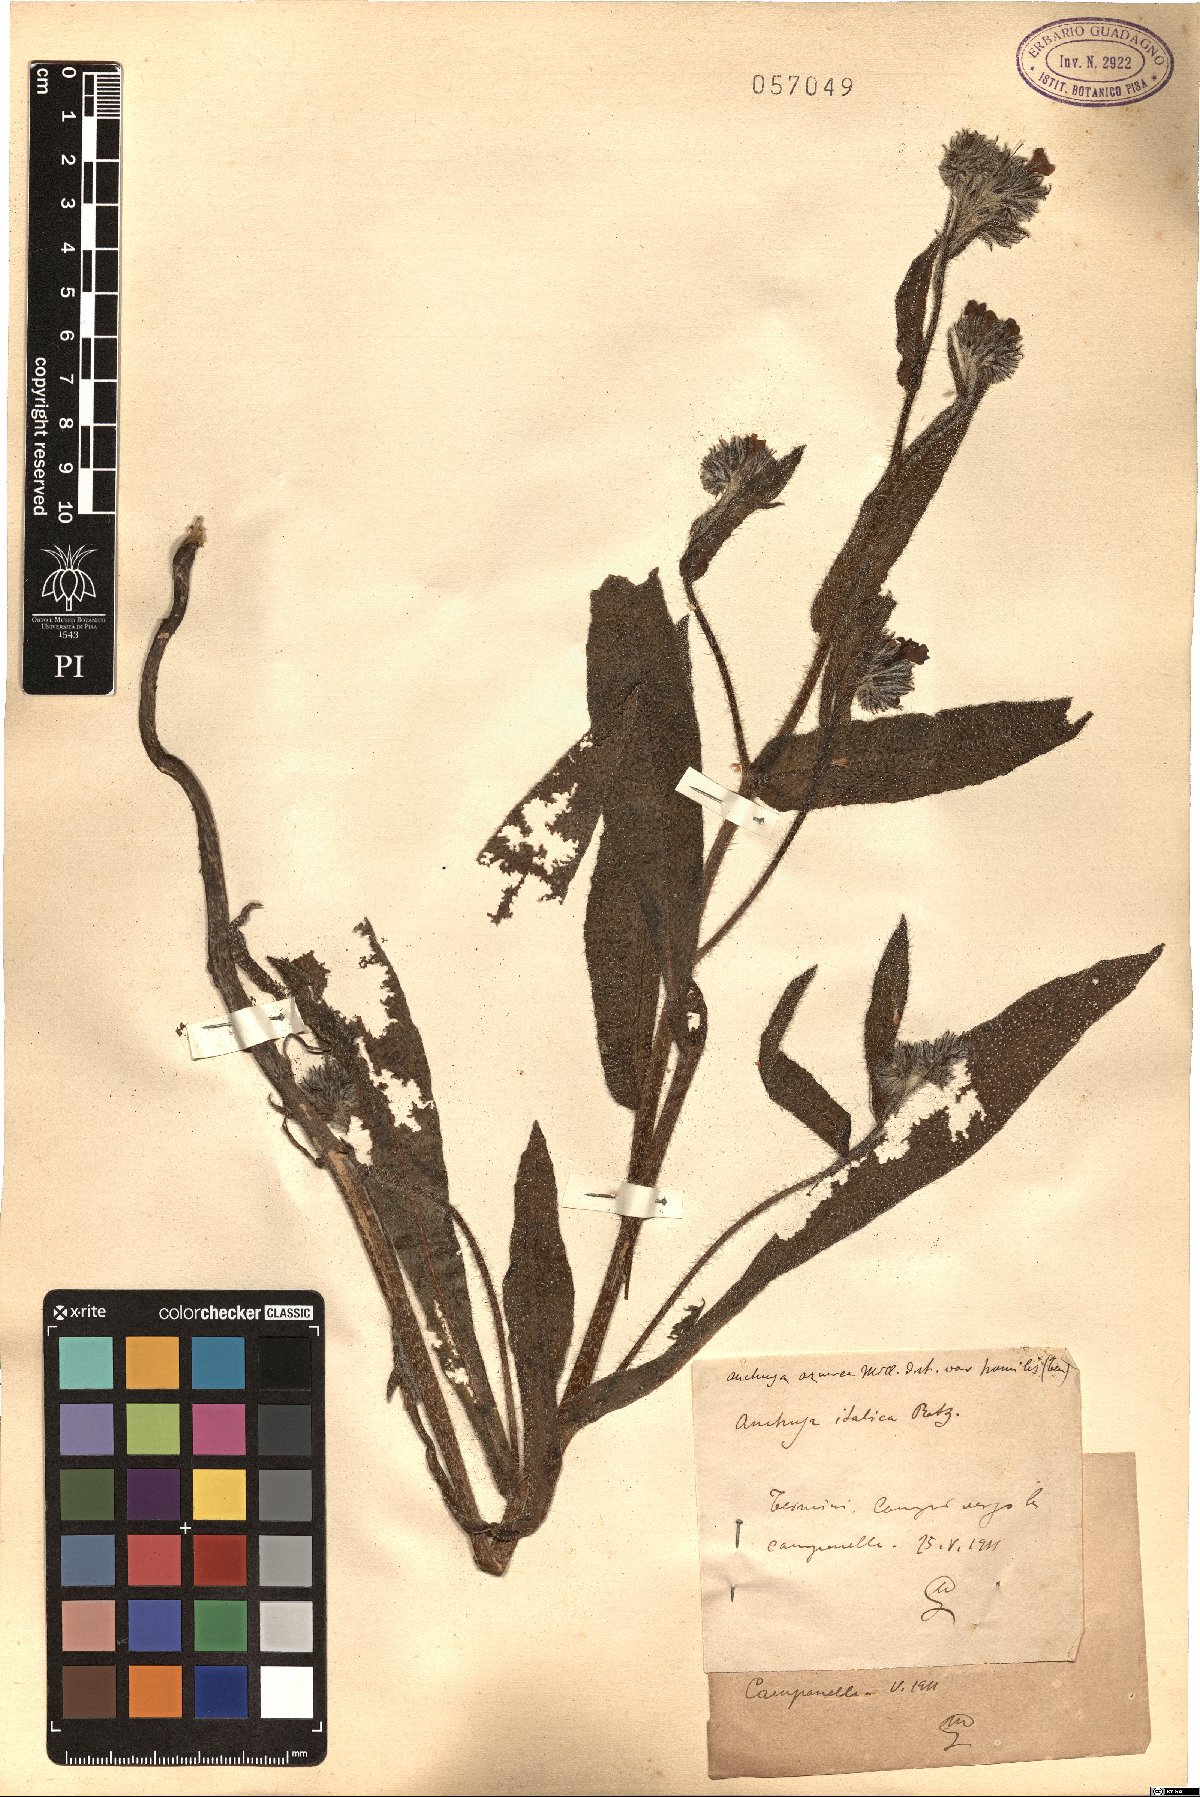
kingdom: Plantae
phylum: Tracheophyta
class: Magnoliopsida
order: Boraginales
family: Boraginaceae
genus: Anchusa
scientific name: Anchusa
